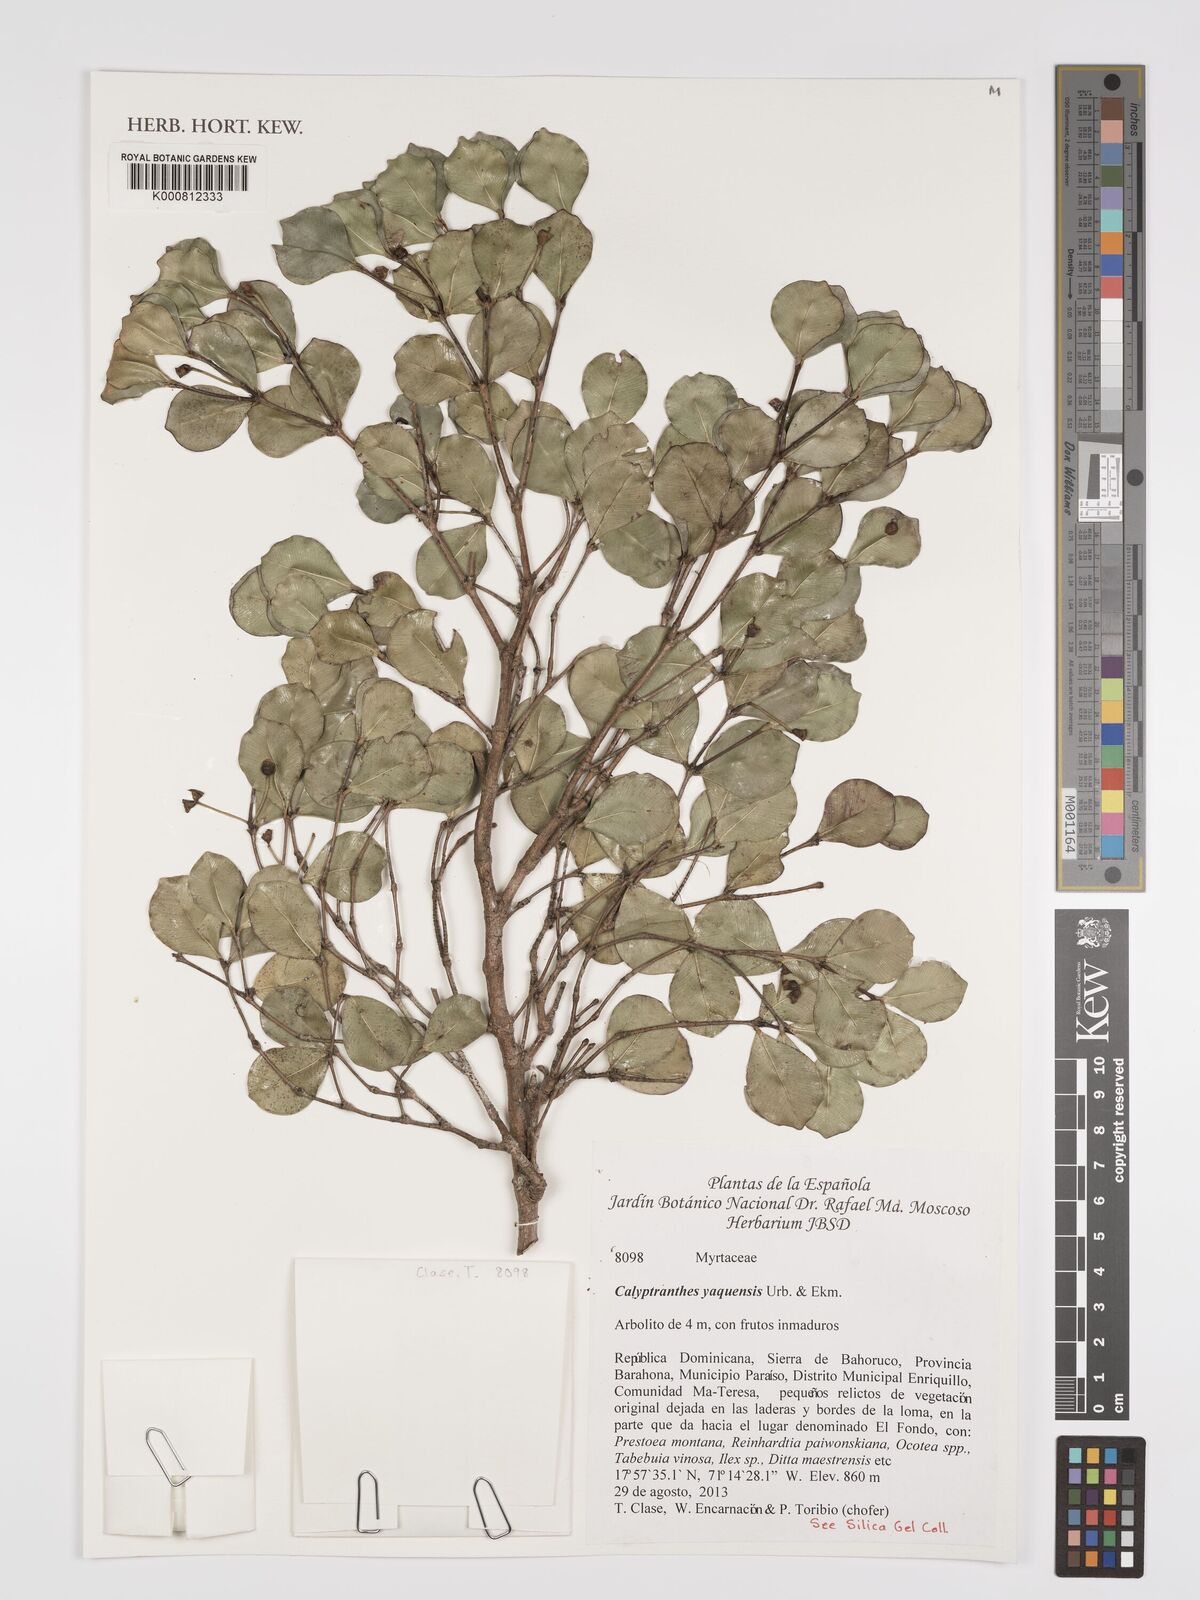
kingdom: Plantae
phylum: Tracheophyta
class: Magnoliopsida
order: Myrtales
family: Myrtaceae
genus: Myrcia
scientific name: Myrcia neoyaquensis
